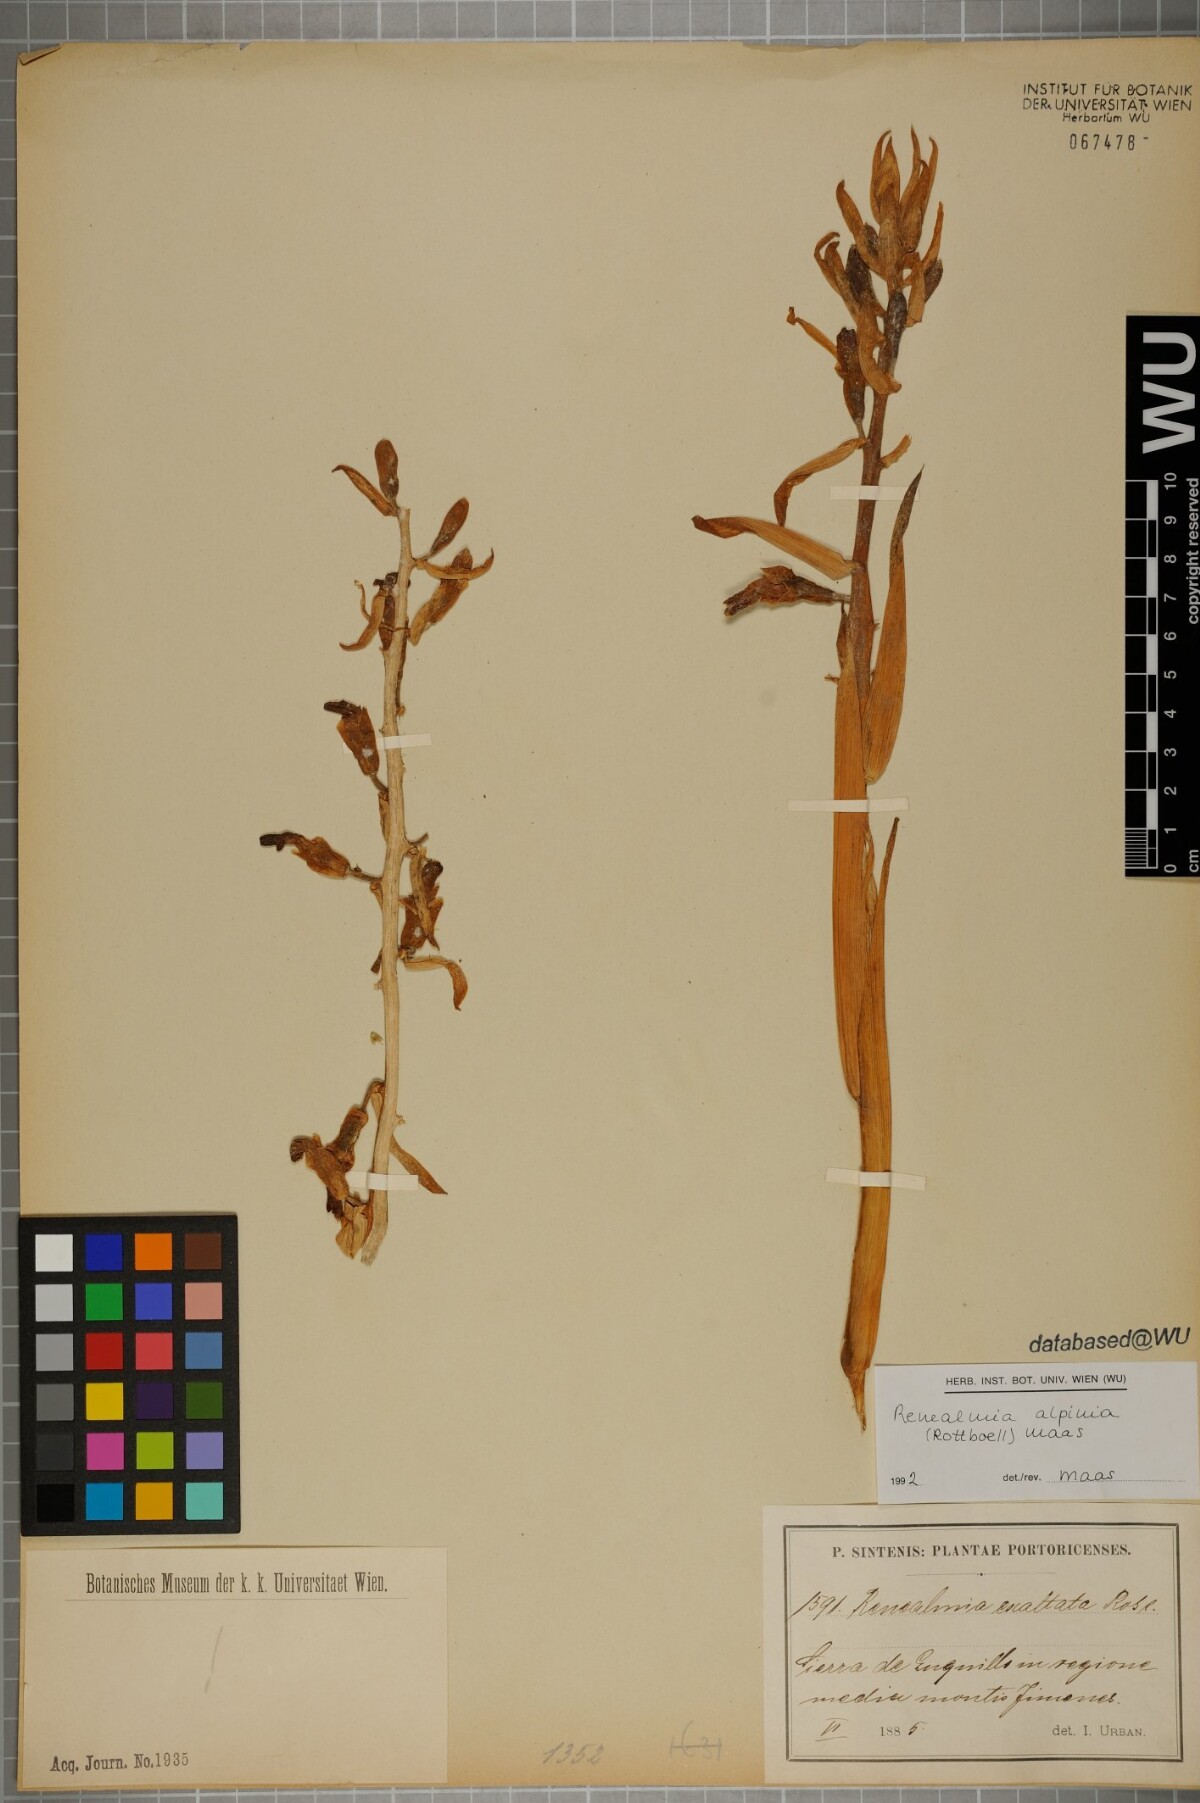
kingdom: Plantae
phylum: Tracheophyta
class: Liliopsida
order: Zingiberales
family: Zingiberaceae
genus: Renealmia
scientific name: Renealmia alpinia
